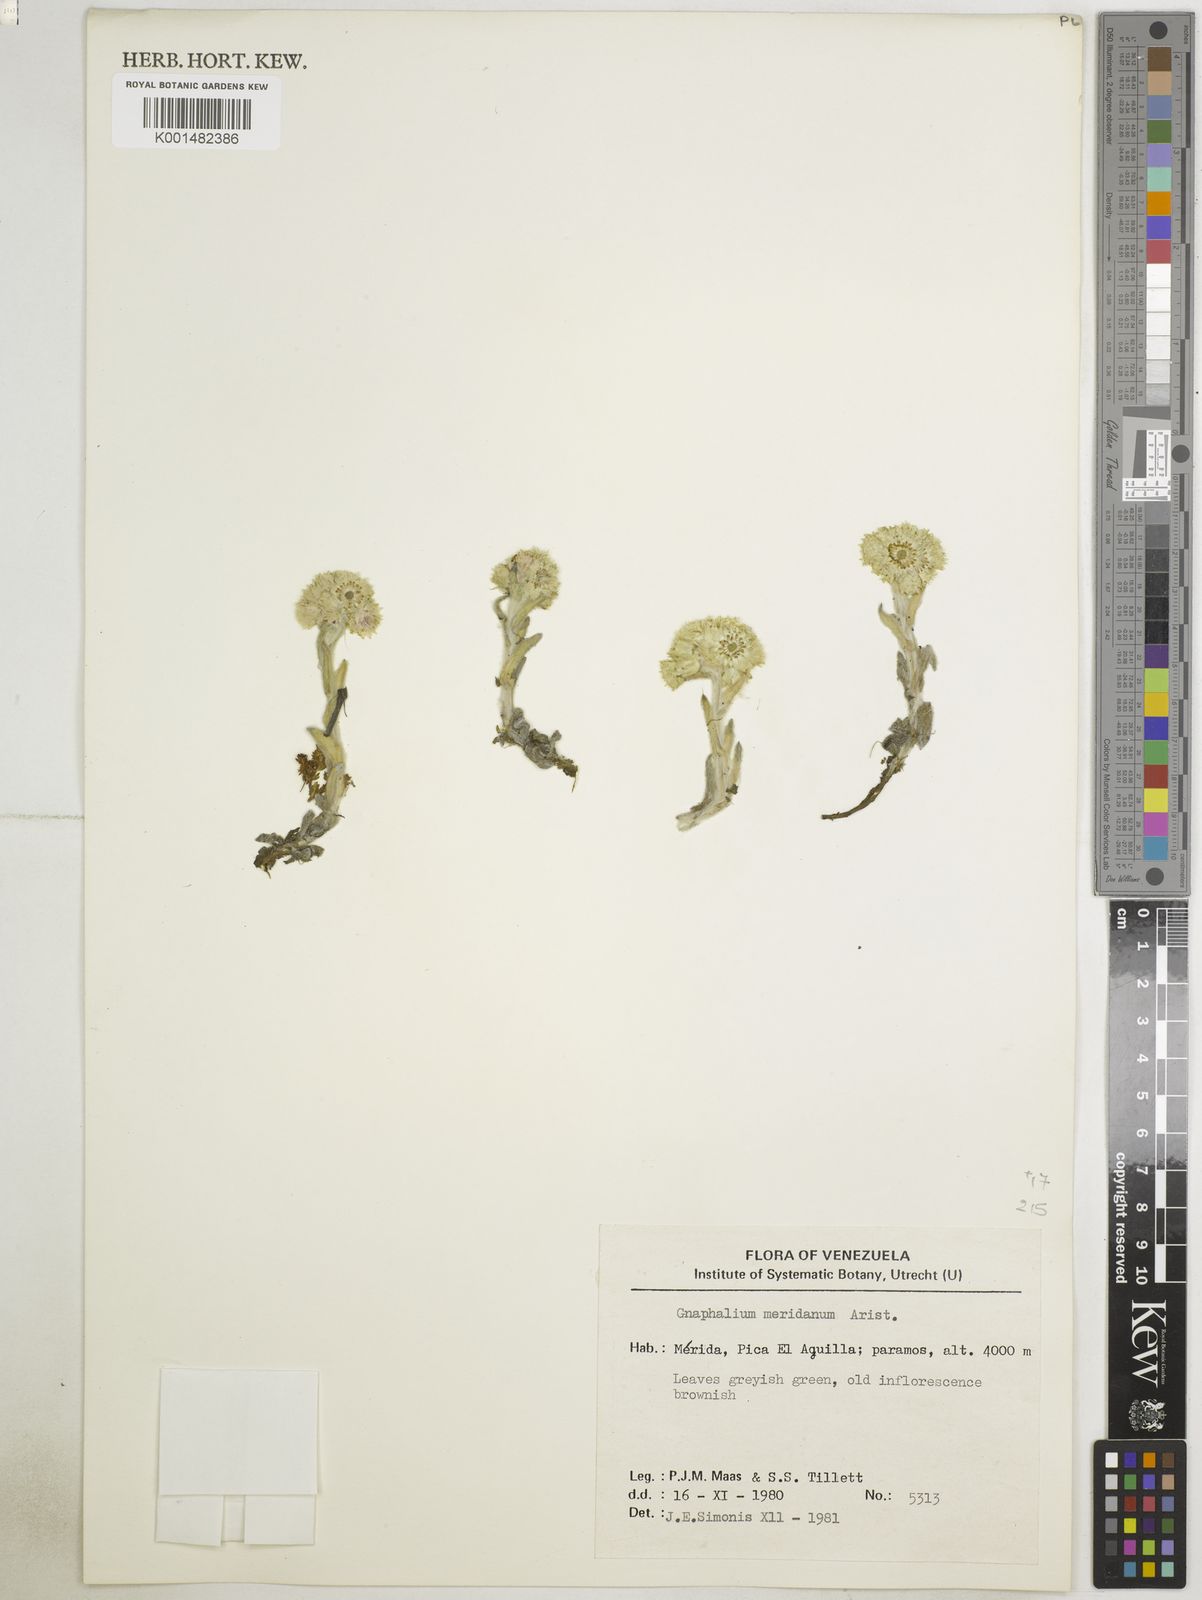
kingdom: Plantae
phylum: Tracheophyta
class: Magnoliopsida
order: Asterales
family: Asteraceae
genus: Pseudognaphalium
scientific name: Pseudognaphalium meridanum
